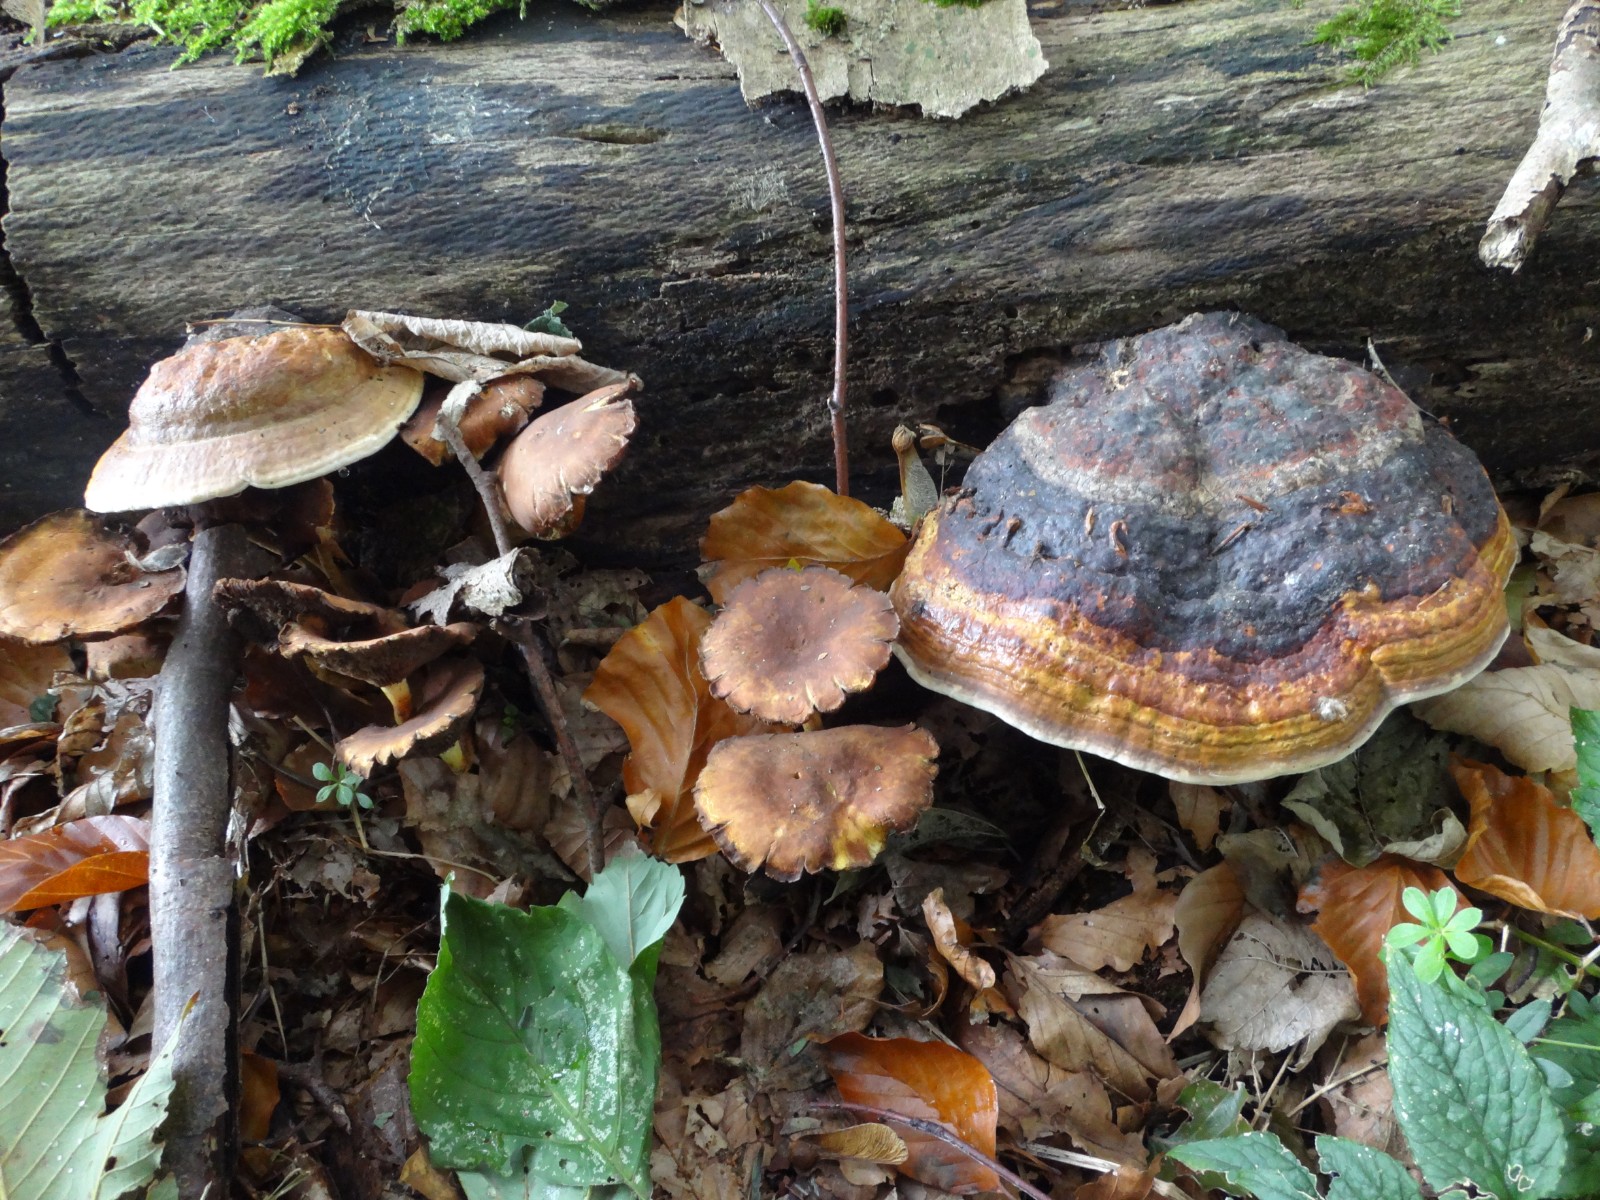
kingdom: Fungi
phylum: Basidiomycota
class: Agaricomycetes
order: Polyporales
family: Fomitopsidaceae
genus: Fomitopsis
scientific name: Fomitopsis pinicola
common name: randbæltet hovporesvamp
